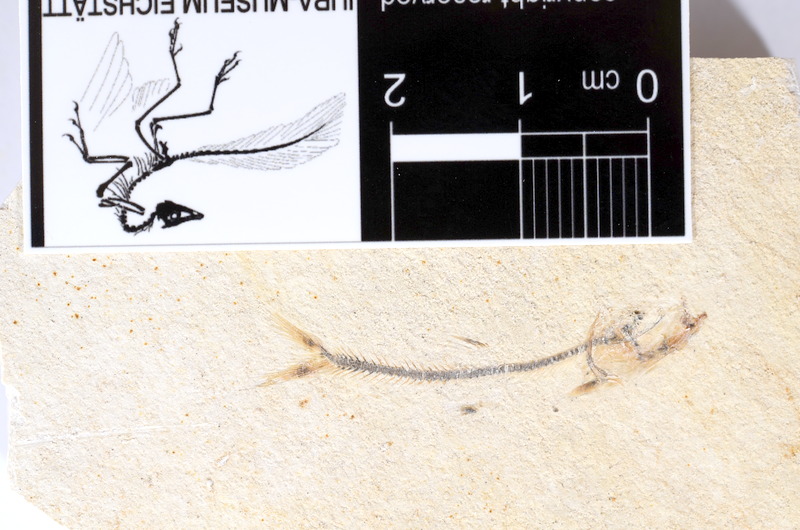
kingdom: Animalia
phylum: Chordata
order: Salmoniformes
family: Orthogonikleithridae
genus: Orthogonikleithrus
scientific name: Orthogonikleithrus hoelli
